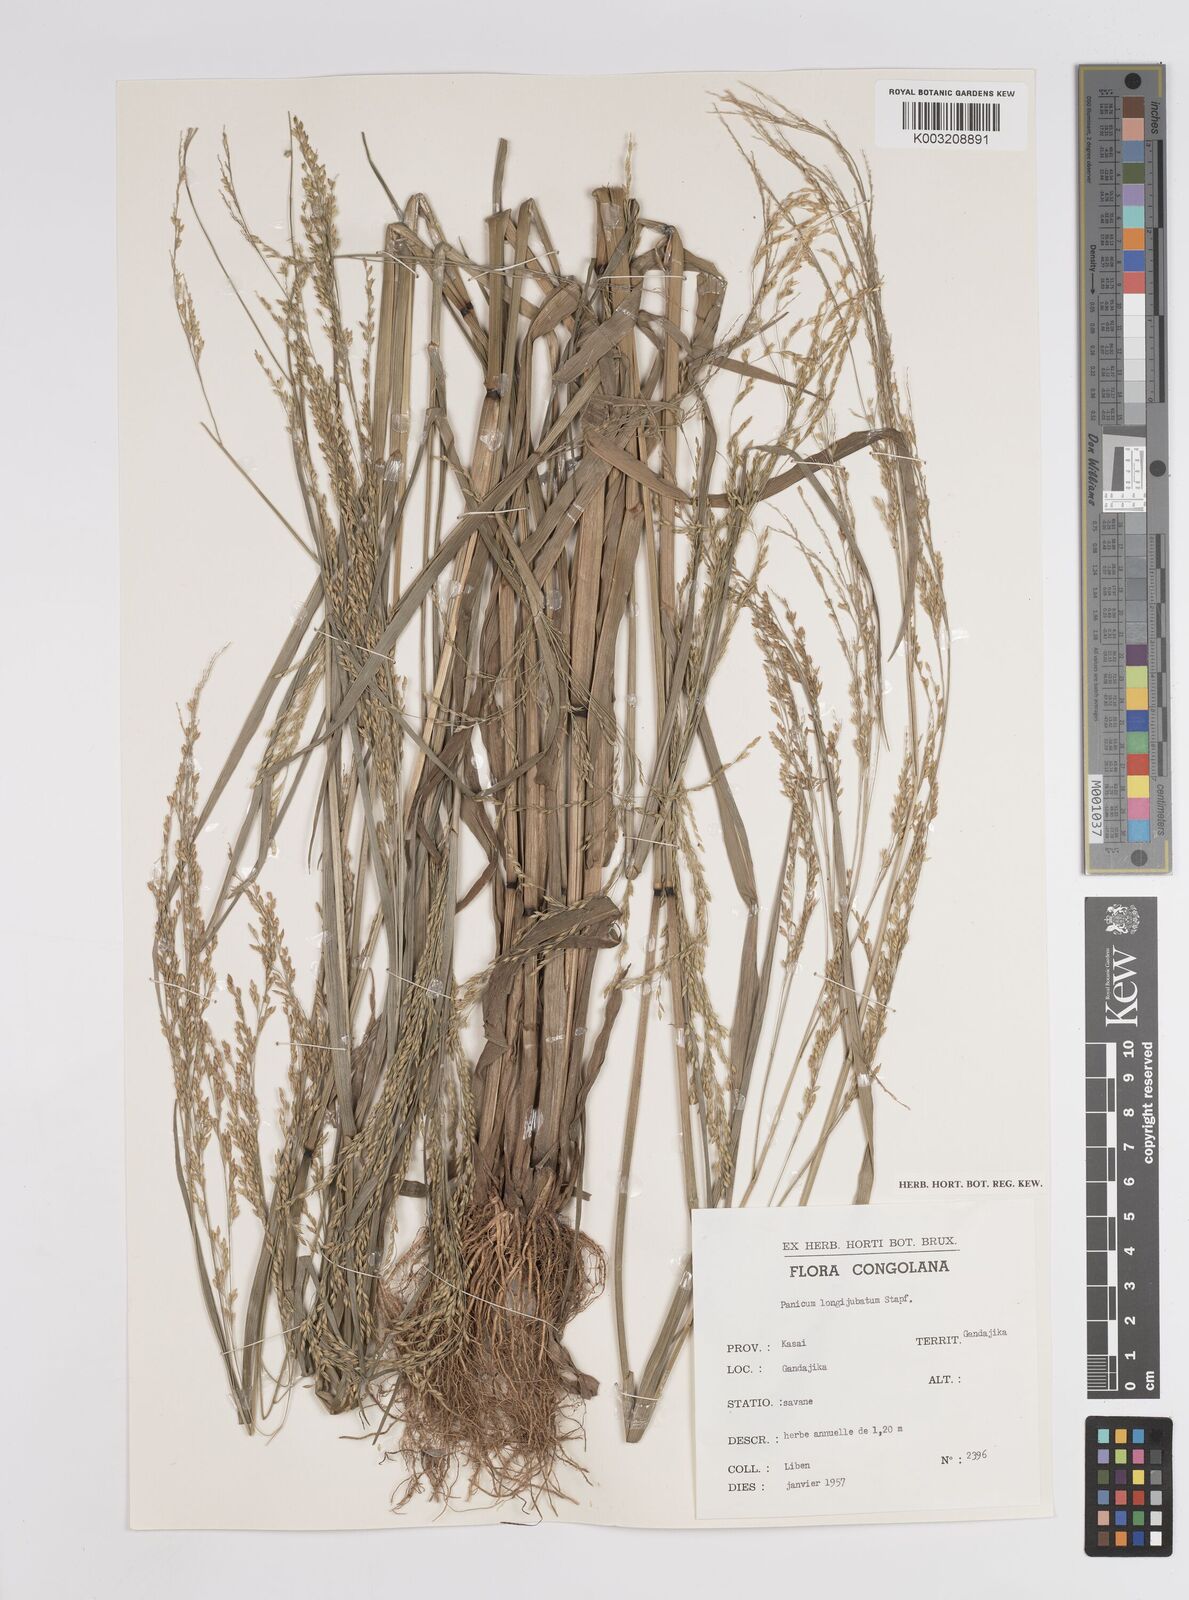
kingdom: Plantae
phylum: Tracheophyta
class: Liliopsida
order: Poales
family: Poaceae
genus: Panicum
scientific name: Panicum subalbidum
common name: Elbow buffalo grass
